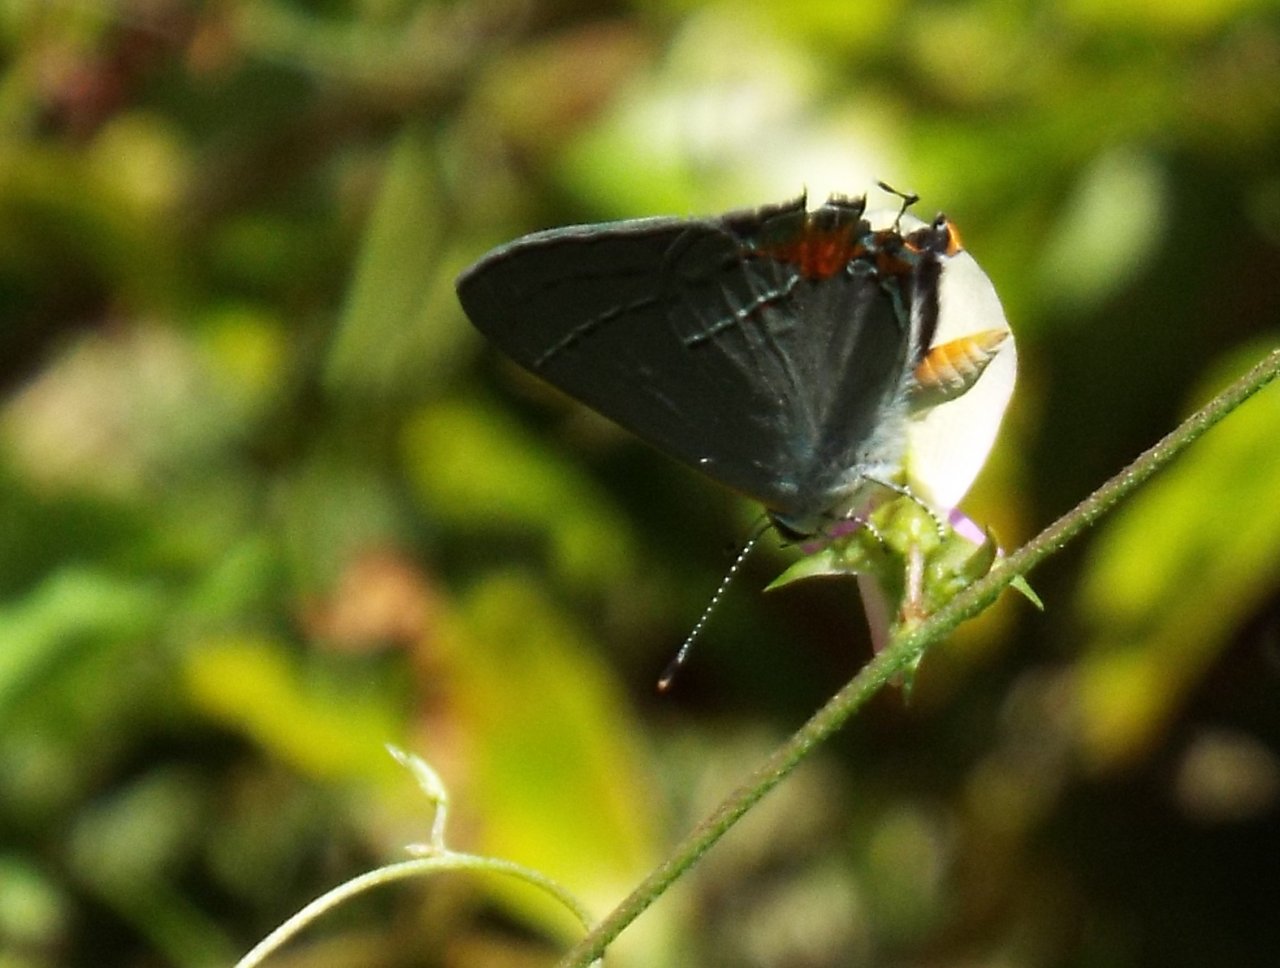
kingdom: Animalia
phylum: Arthropoda
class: Insecta
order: Lepidoptera
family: Lycaenidae
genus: Strymon
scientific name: Strymon melinus
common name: Gray Hairstreak
